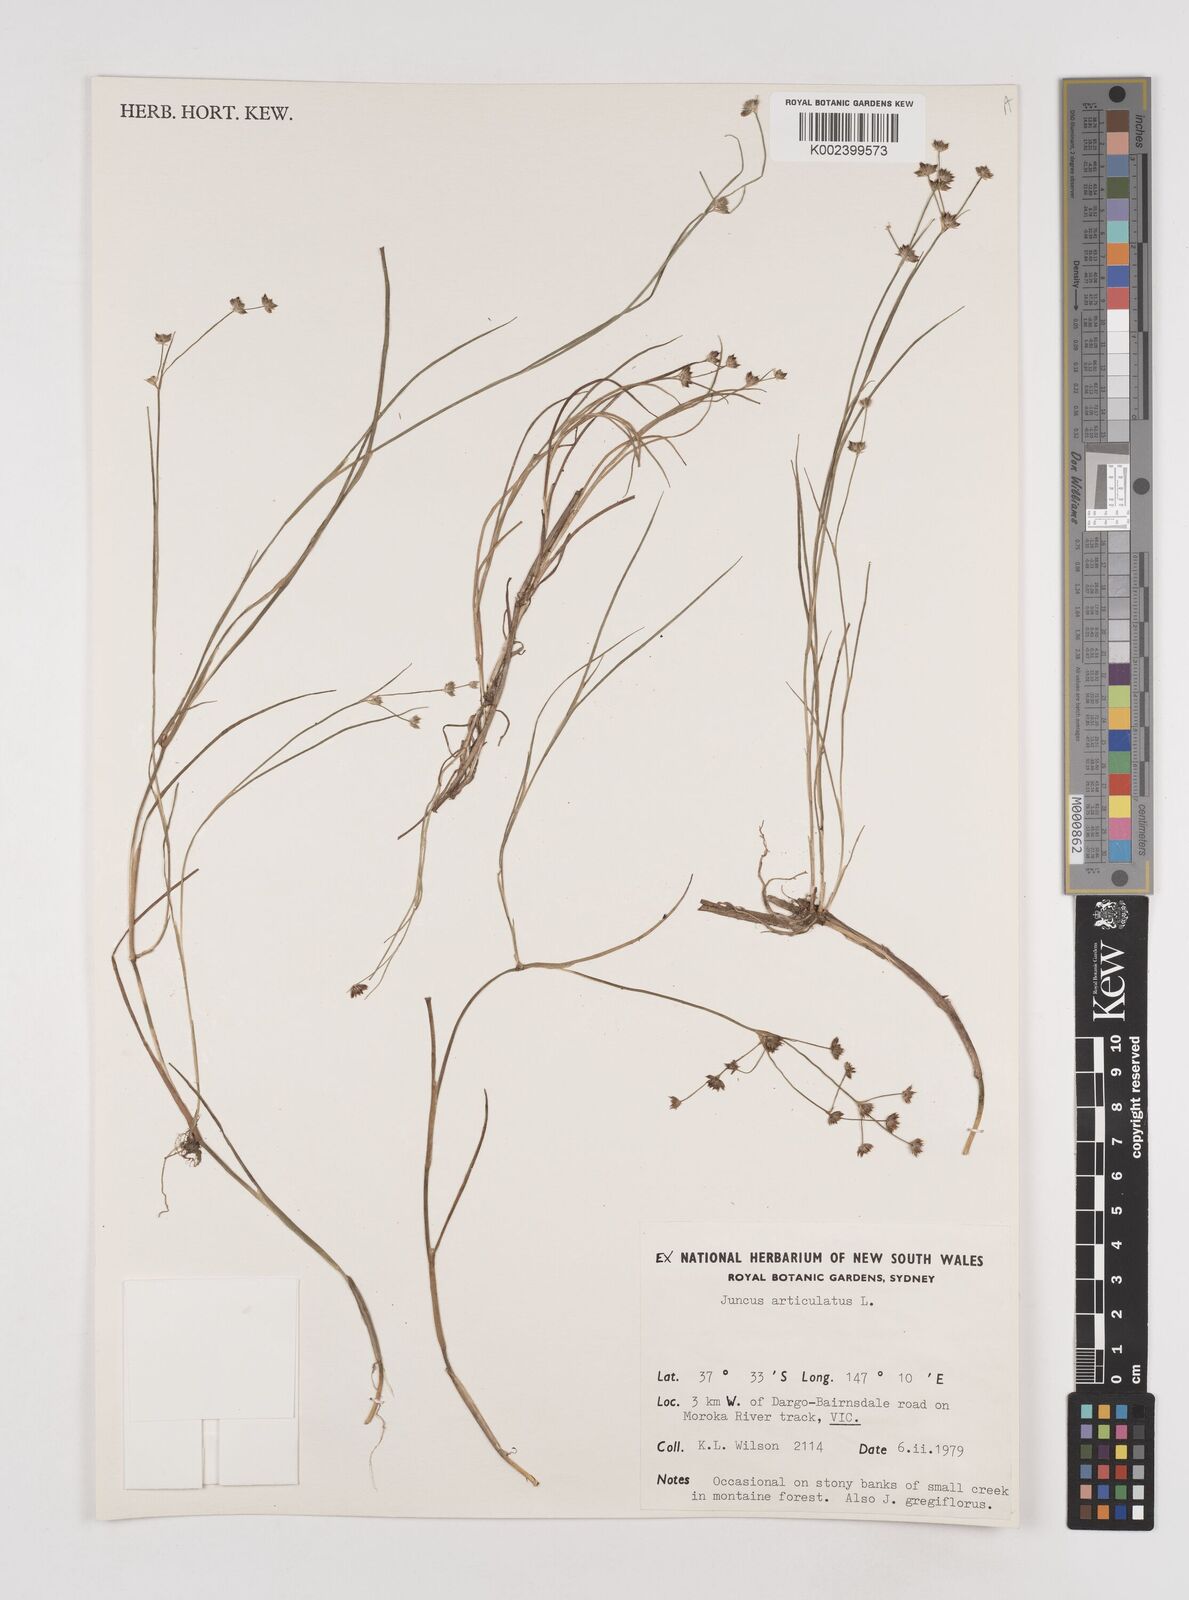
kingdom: Plantae
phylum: Tracheophyta
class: Liliopsida
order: Poales
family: Juncaceae
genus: Juncus
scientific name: Juncus articulatus
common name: Jointed rush
